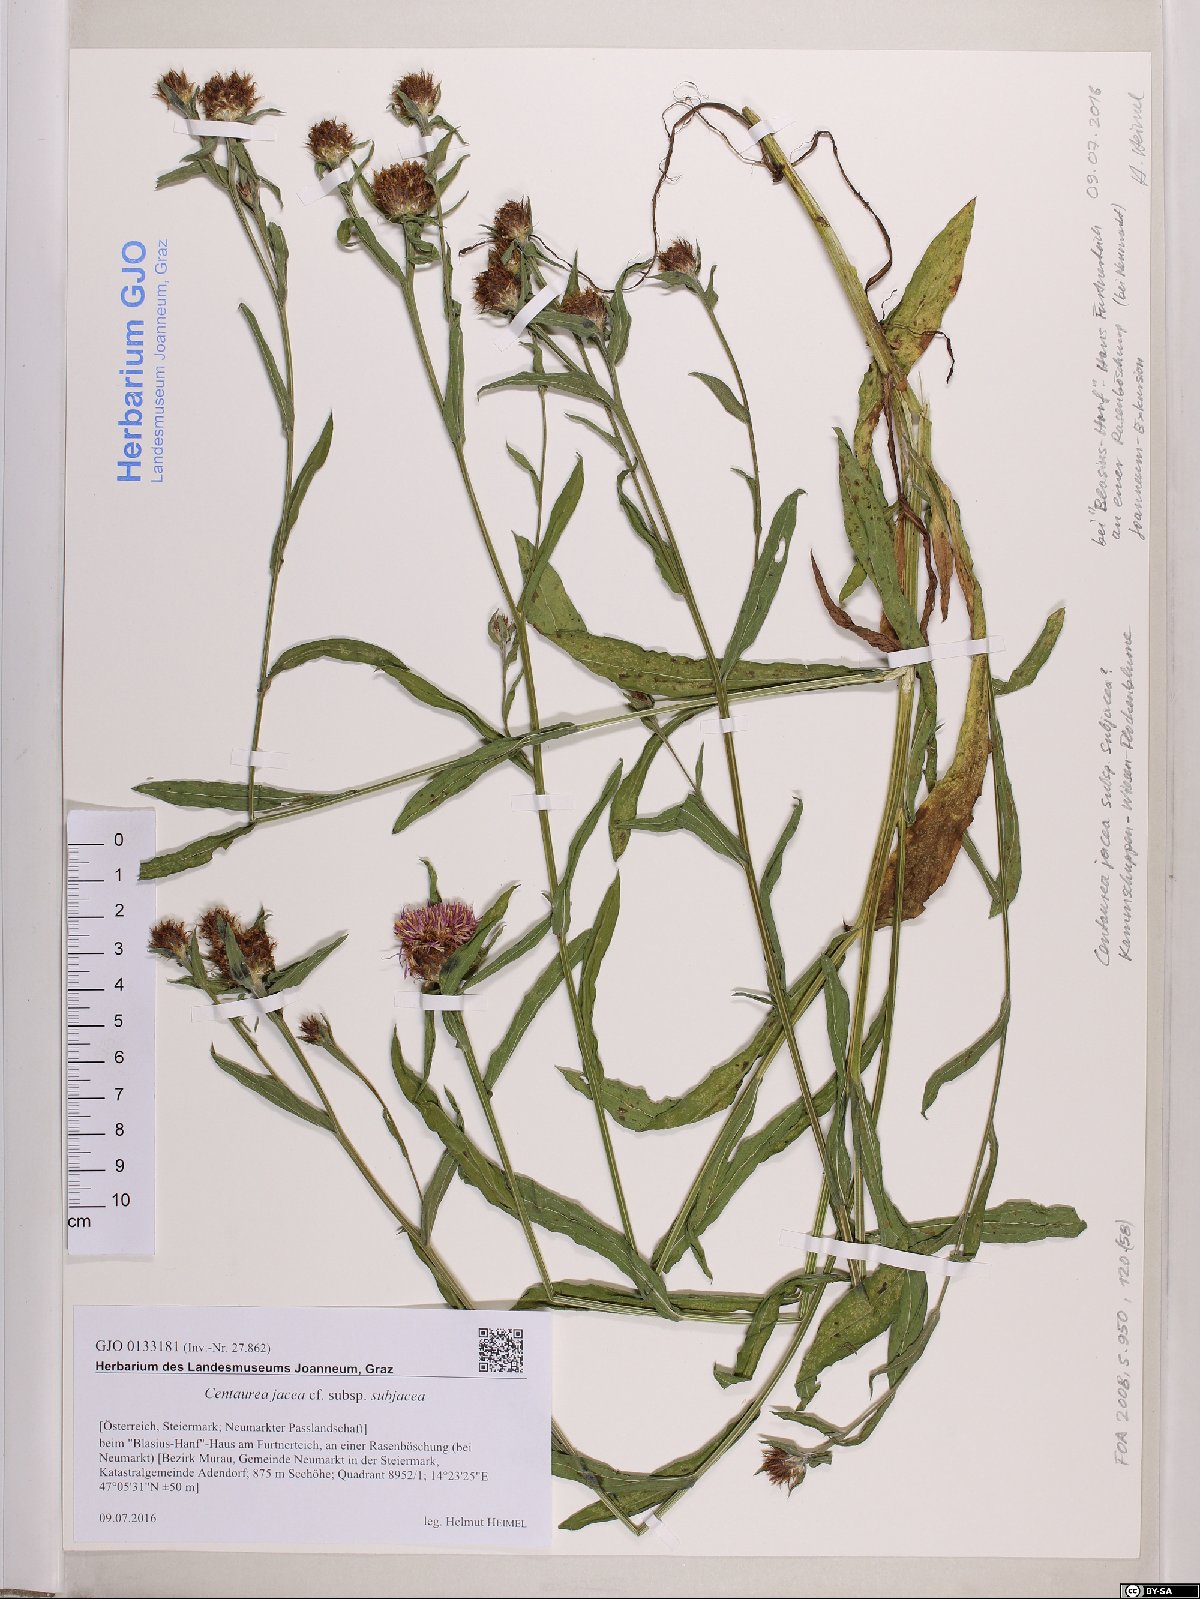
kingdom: Plantae
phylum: Tracheophyta
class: Magnoliopsida
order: Asterales
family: Asteraceae
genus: Centaurea
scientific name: Centaurea preissmannii
